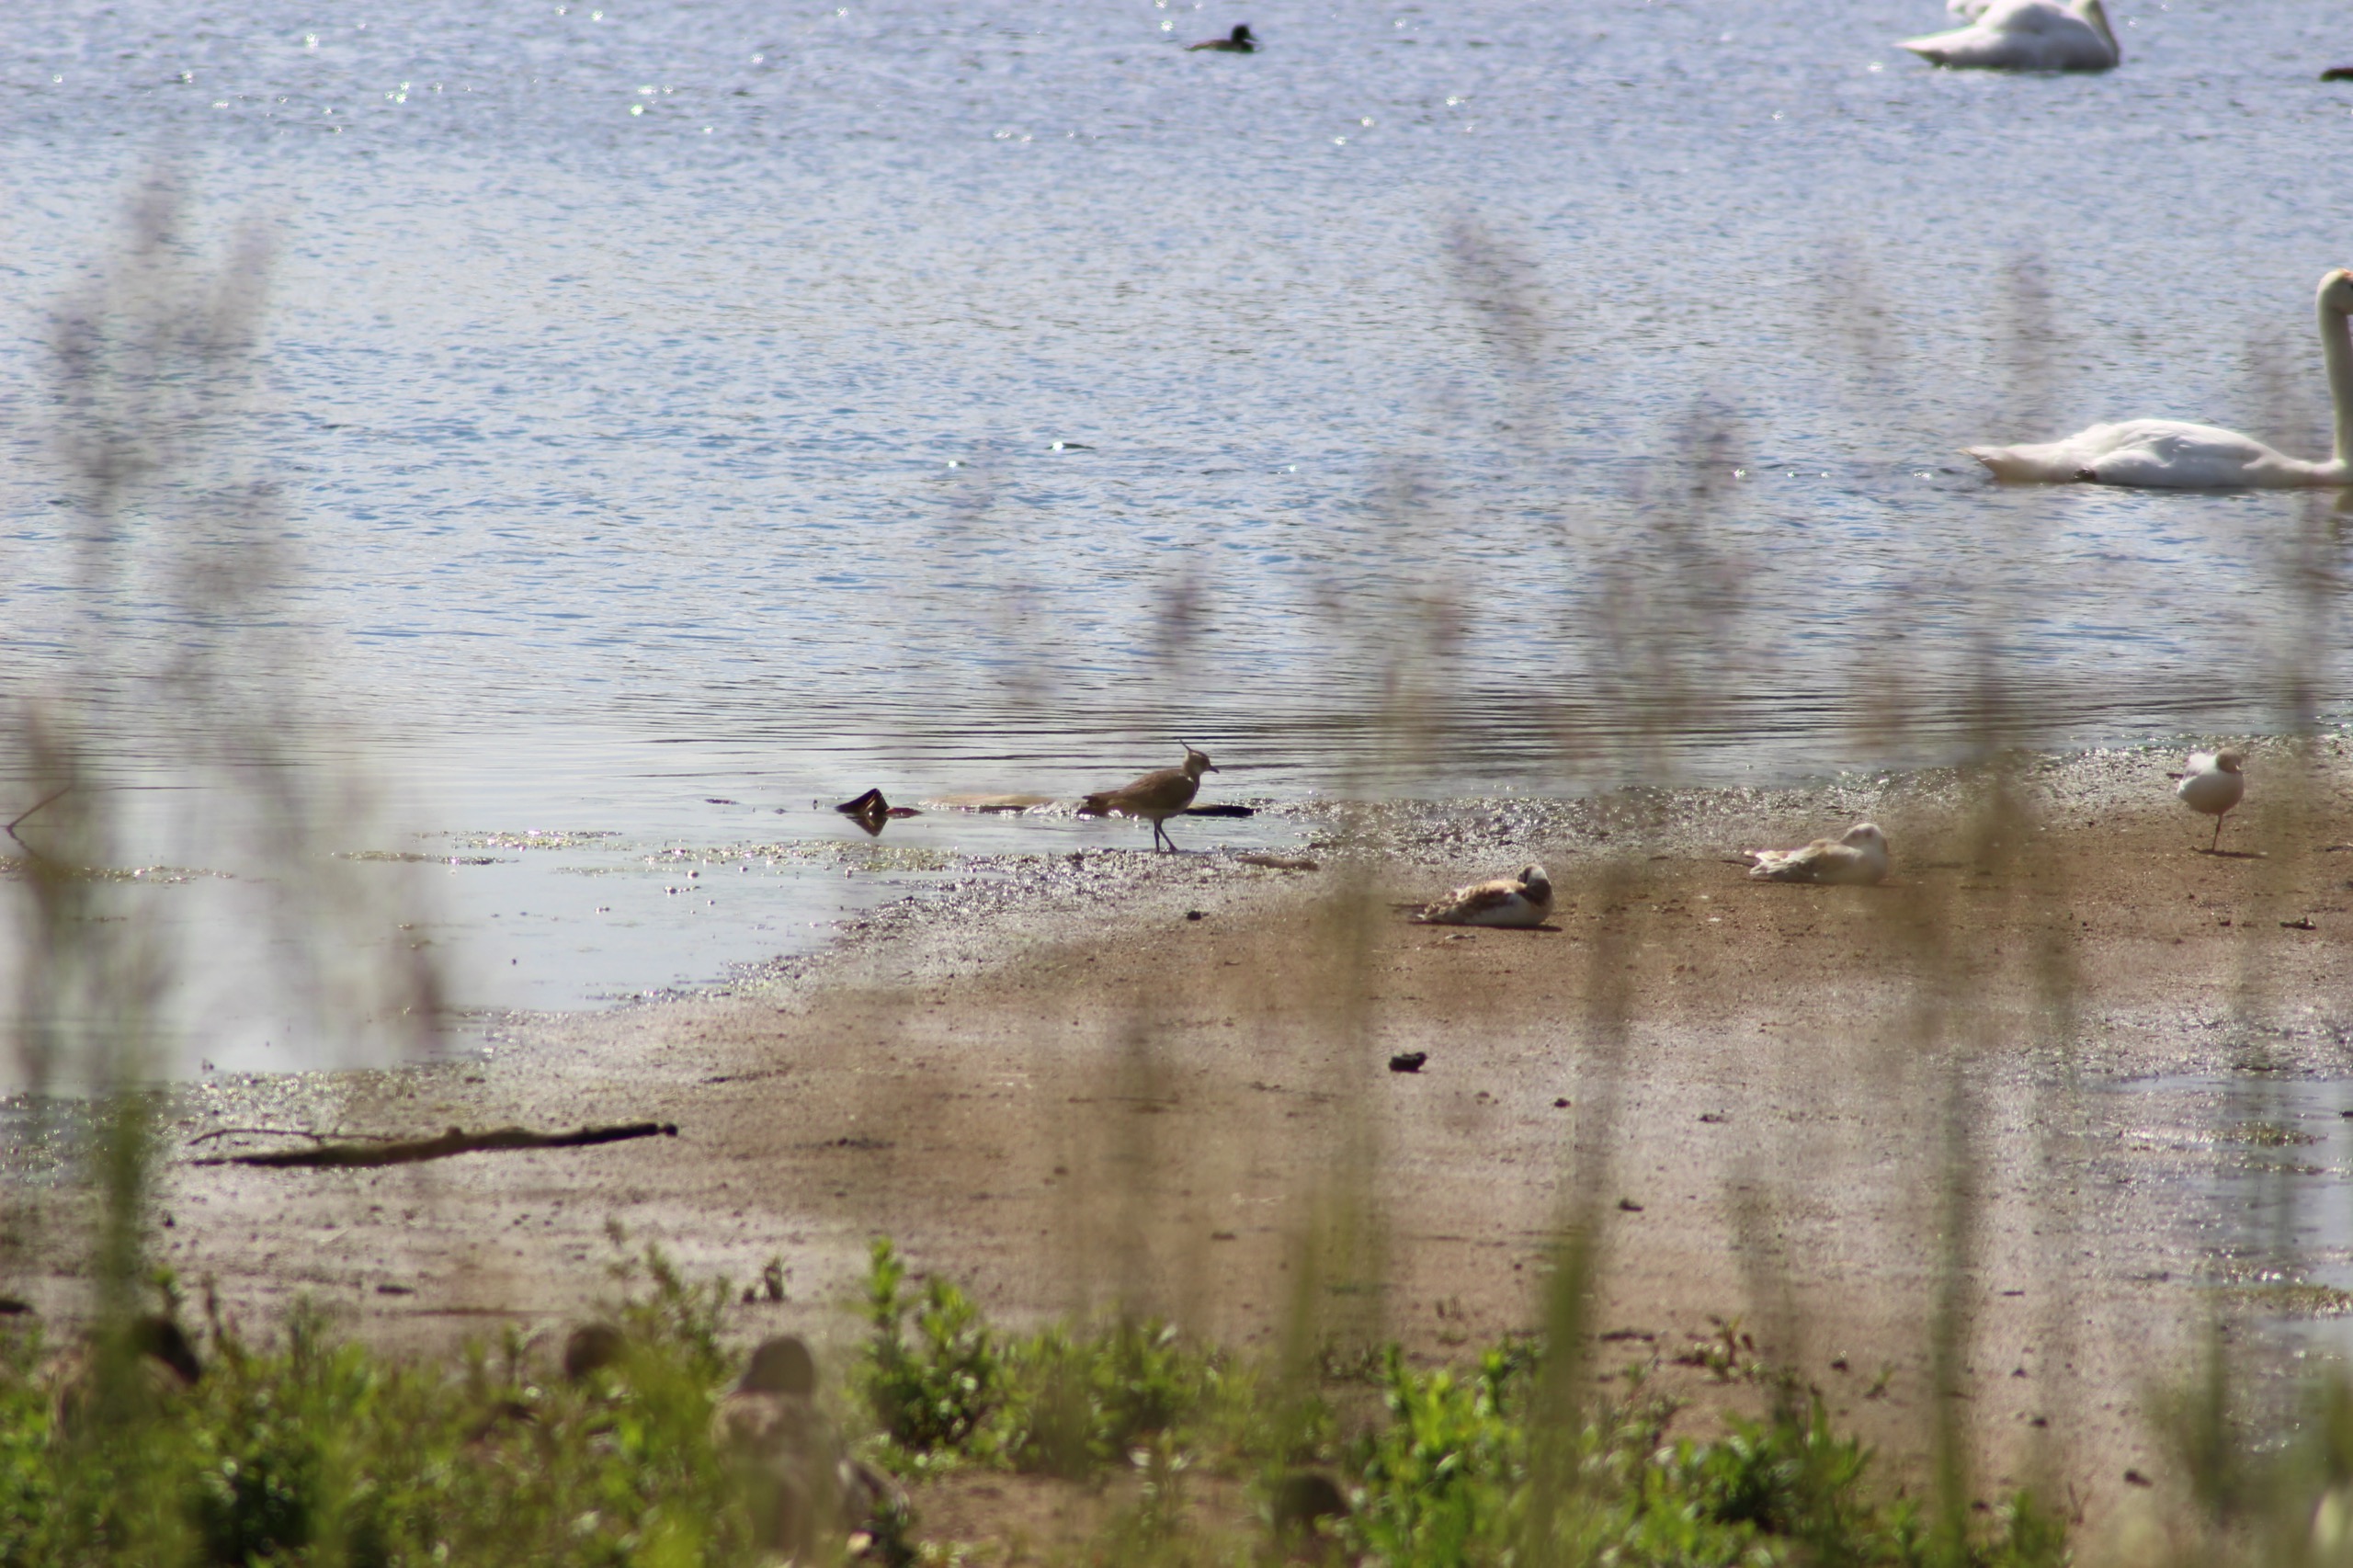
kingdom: Animalia
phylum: Chordata
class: Aves
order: Charadriiformes
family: Charadriidae
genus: Vanellus
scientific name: Vanellus vanellus
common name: Vibe
